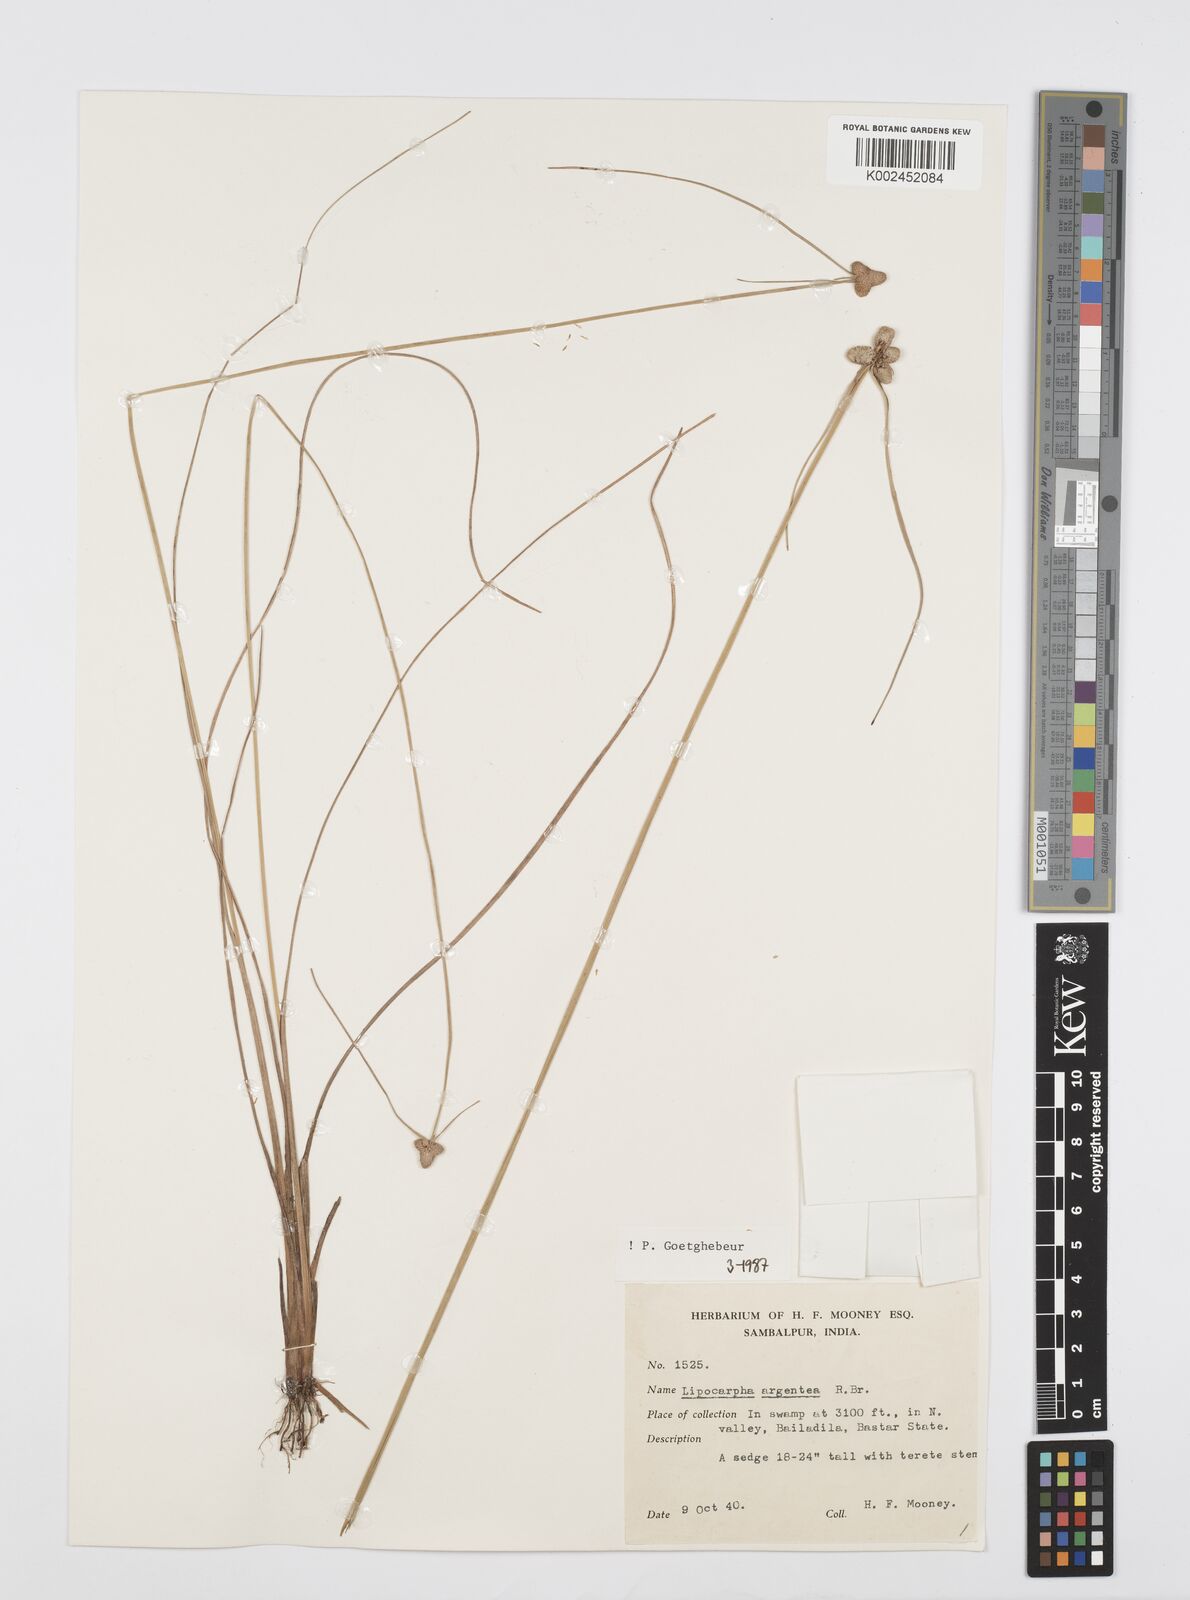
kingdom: Plantae
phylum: Tracheophyta
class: Liliopsida
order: Poales
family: Cyperaceae
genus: Cyperus
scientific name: Cyperus
